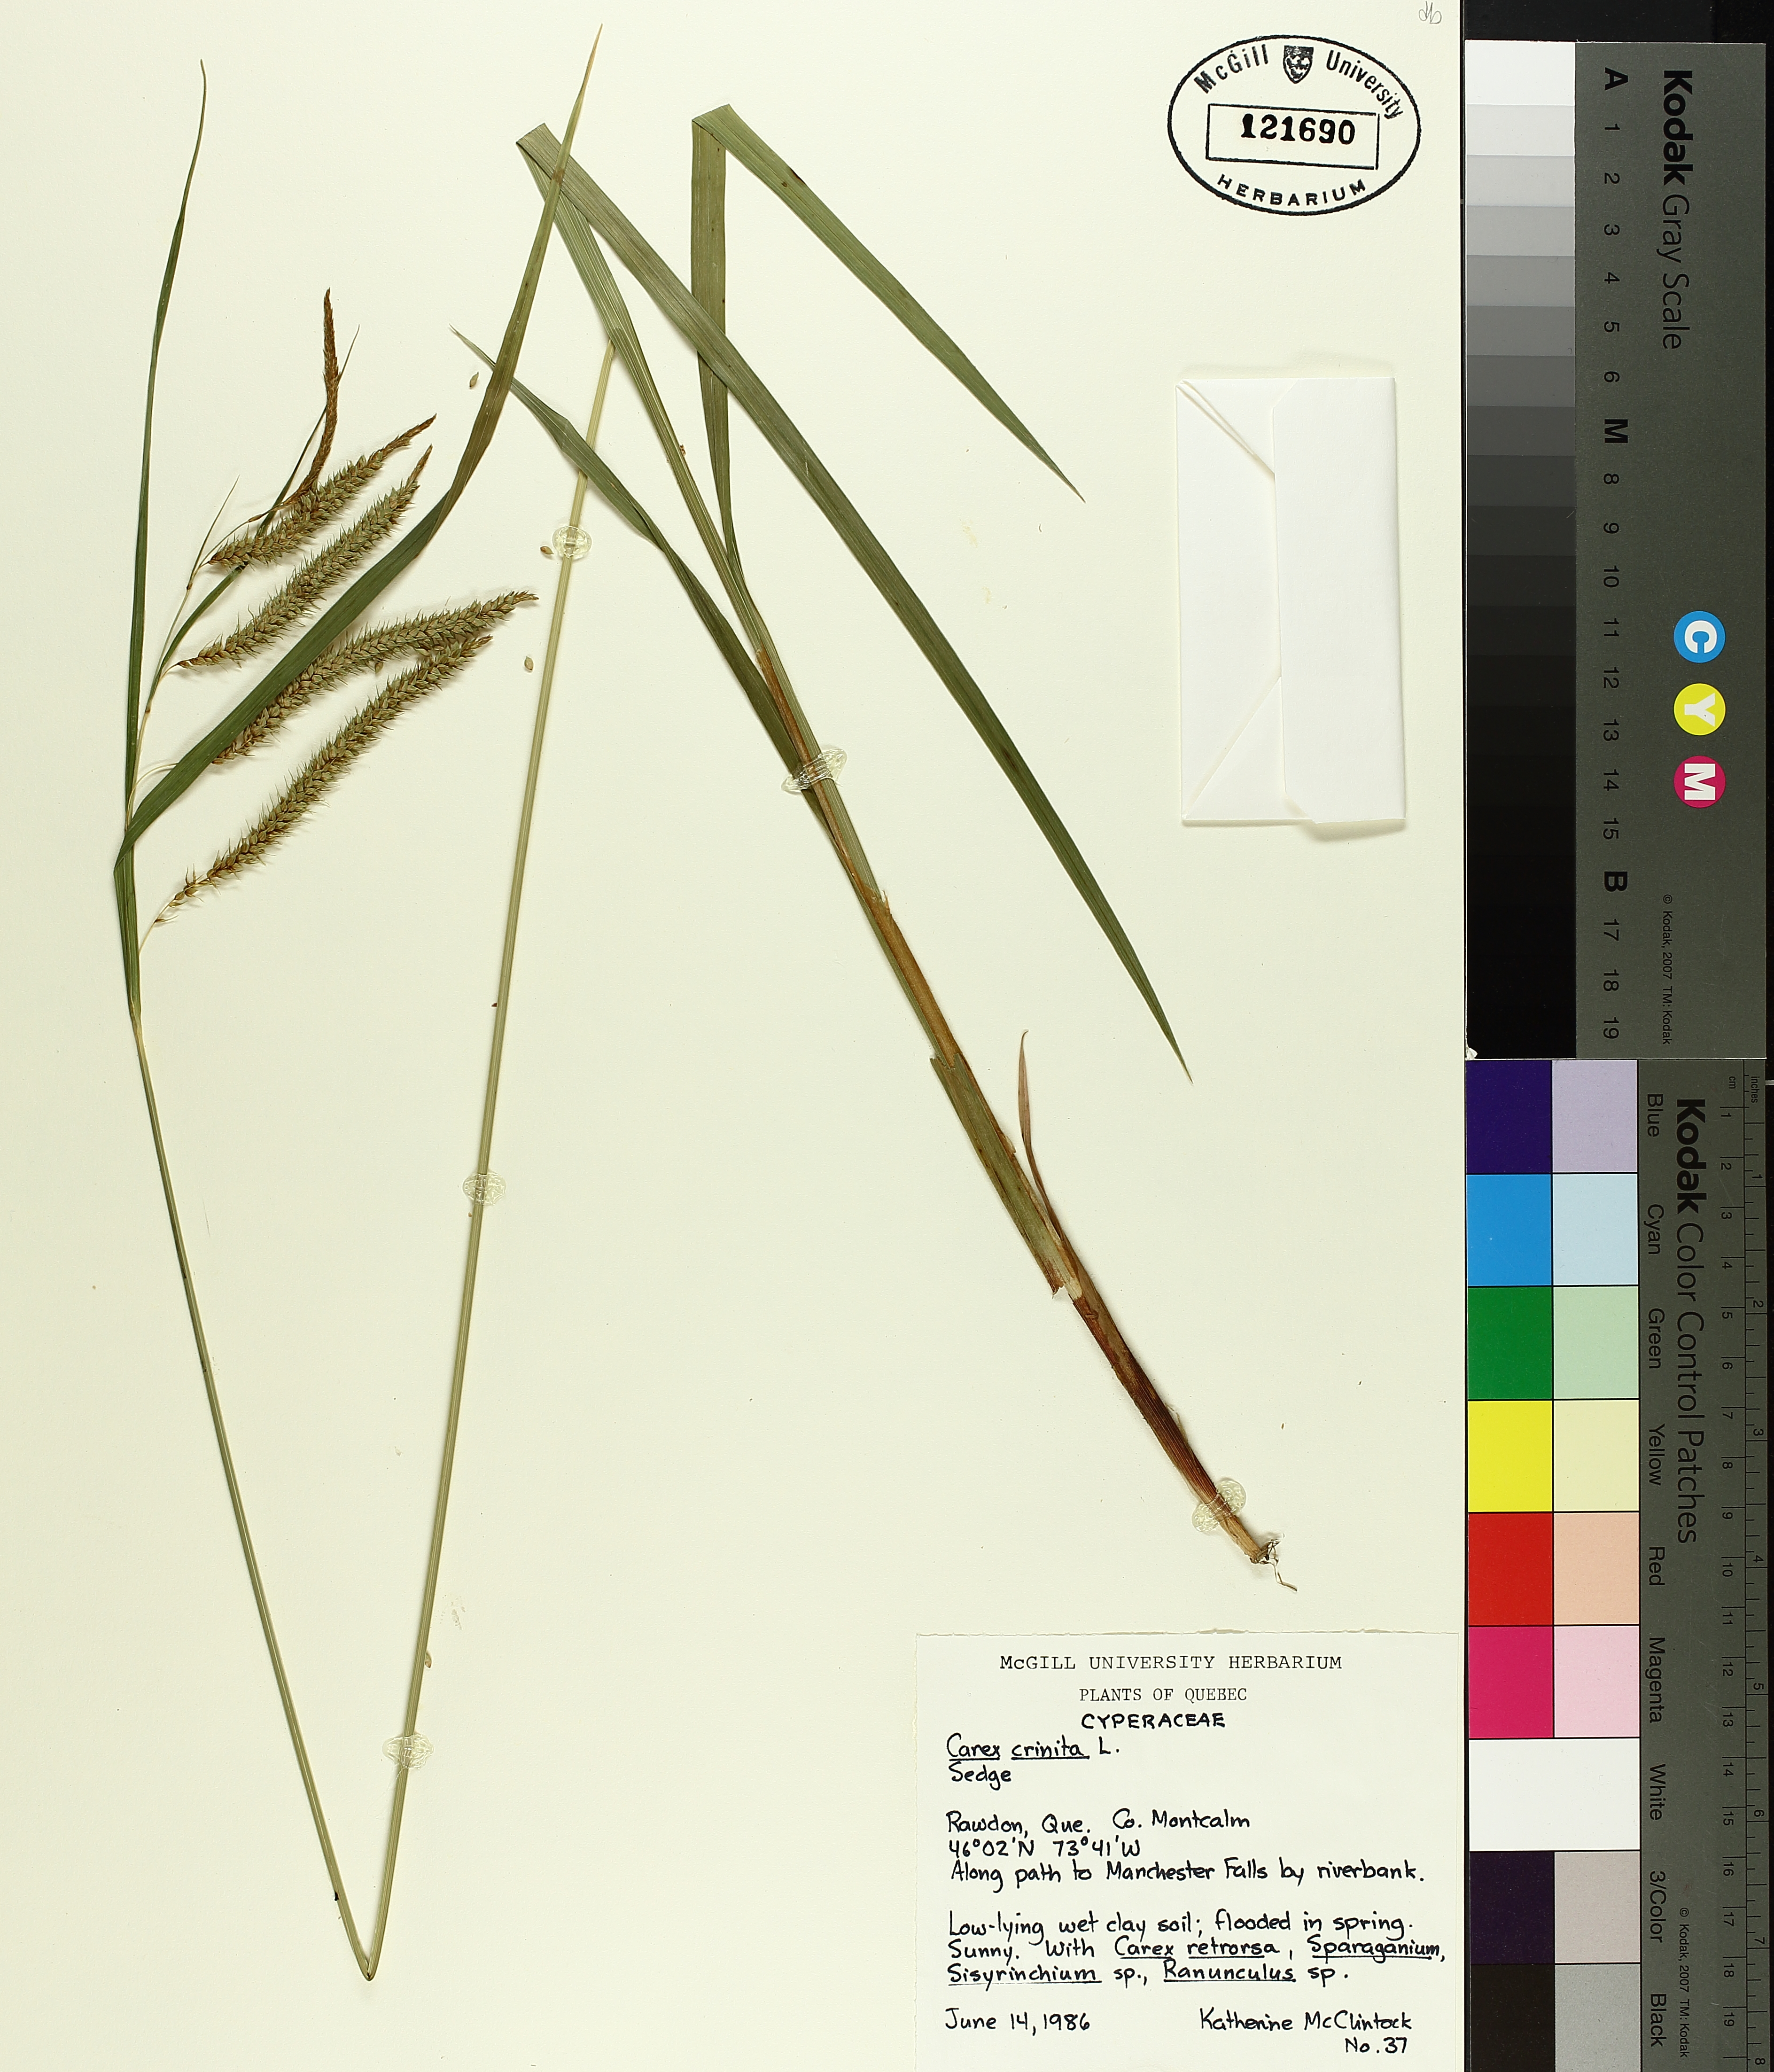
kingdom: Plantae
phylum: Tracheophyta
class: Liliopsida
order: Poales
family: Cyperaceae
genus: Carex
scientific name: Carex crinita
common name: Fringed sedge
